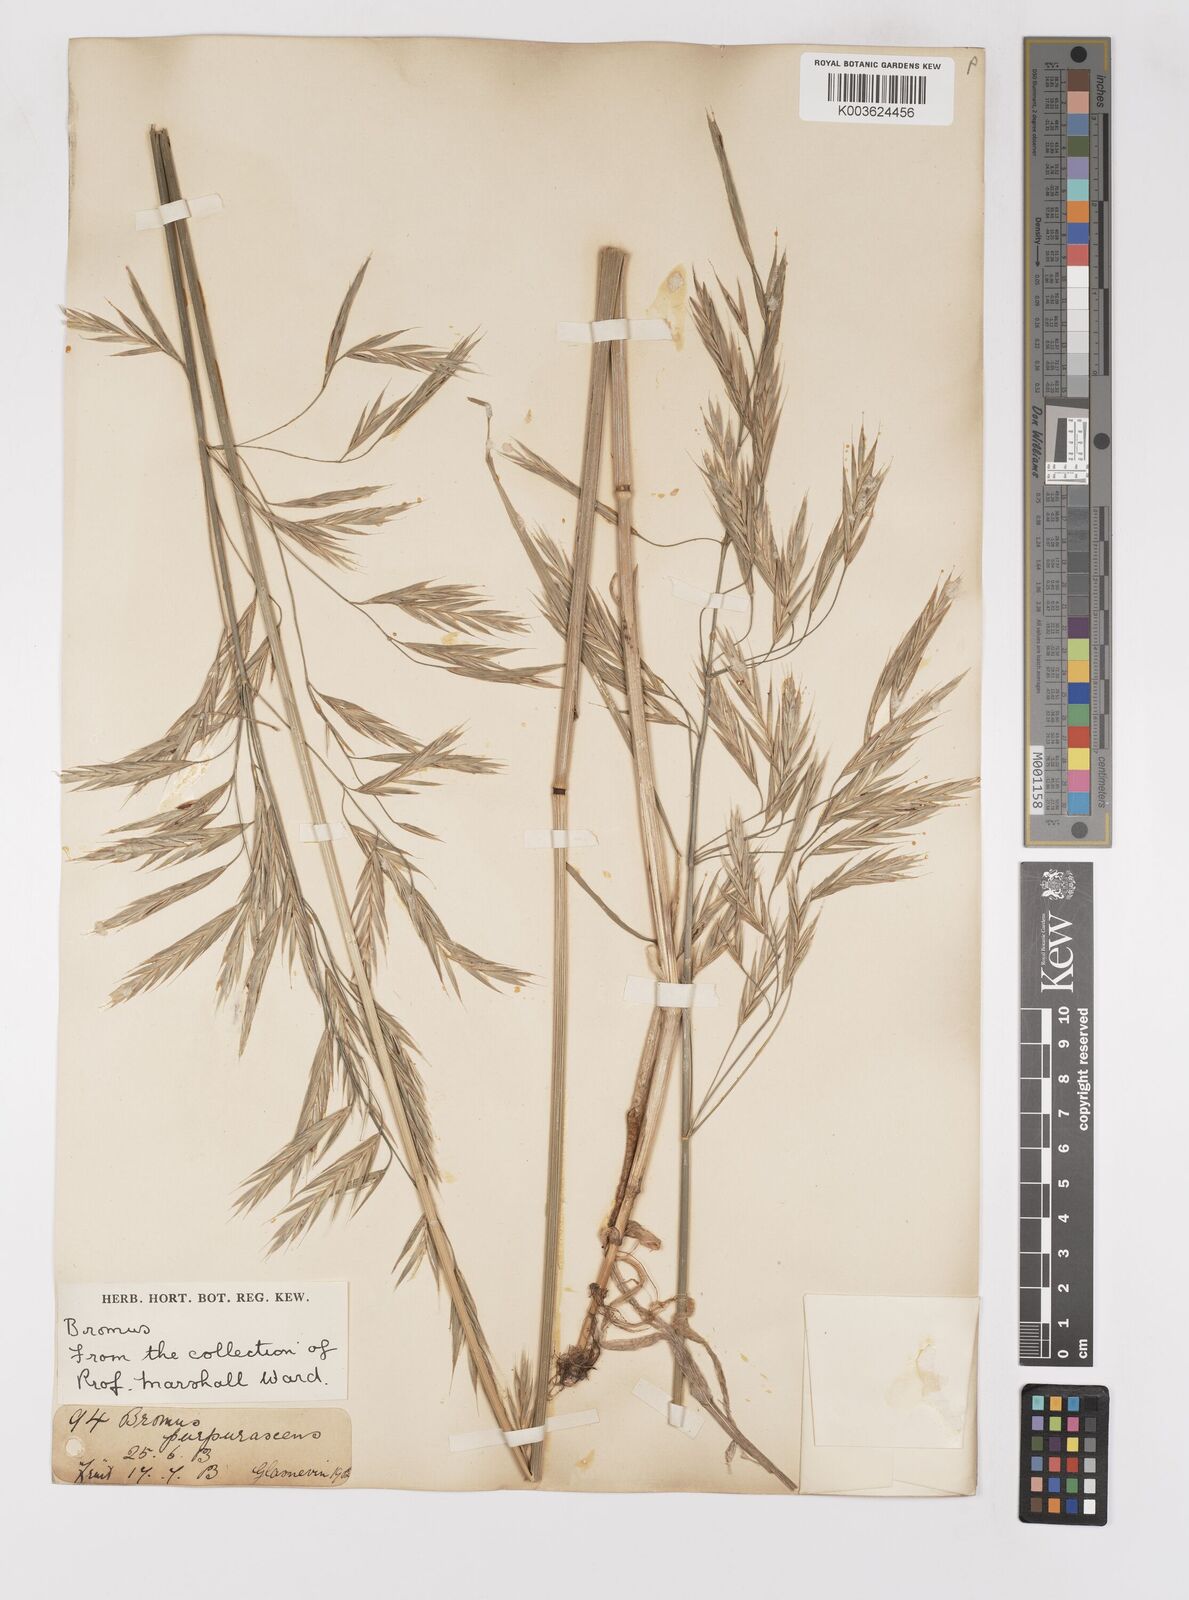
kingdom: Plantae
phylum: Tracheophyta
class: Liliopsida
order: Poales
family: Poaceae
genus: Bromus
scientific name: Bromus
